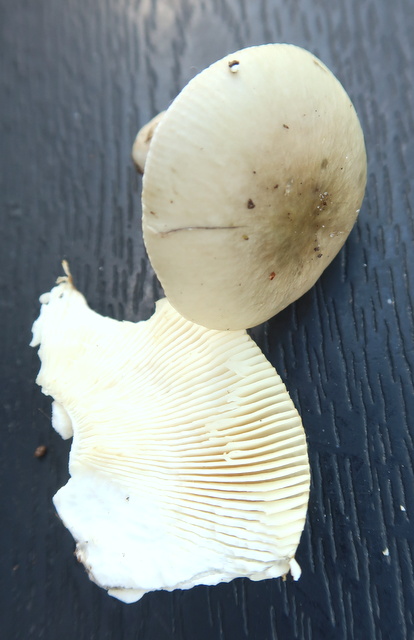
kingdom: Fungi
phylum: Basidiomycota
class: Agaricomycetes
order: Russulales
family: Russulaceae
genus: Russula
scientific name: Russula
